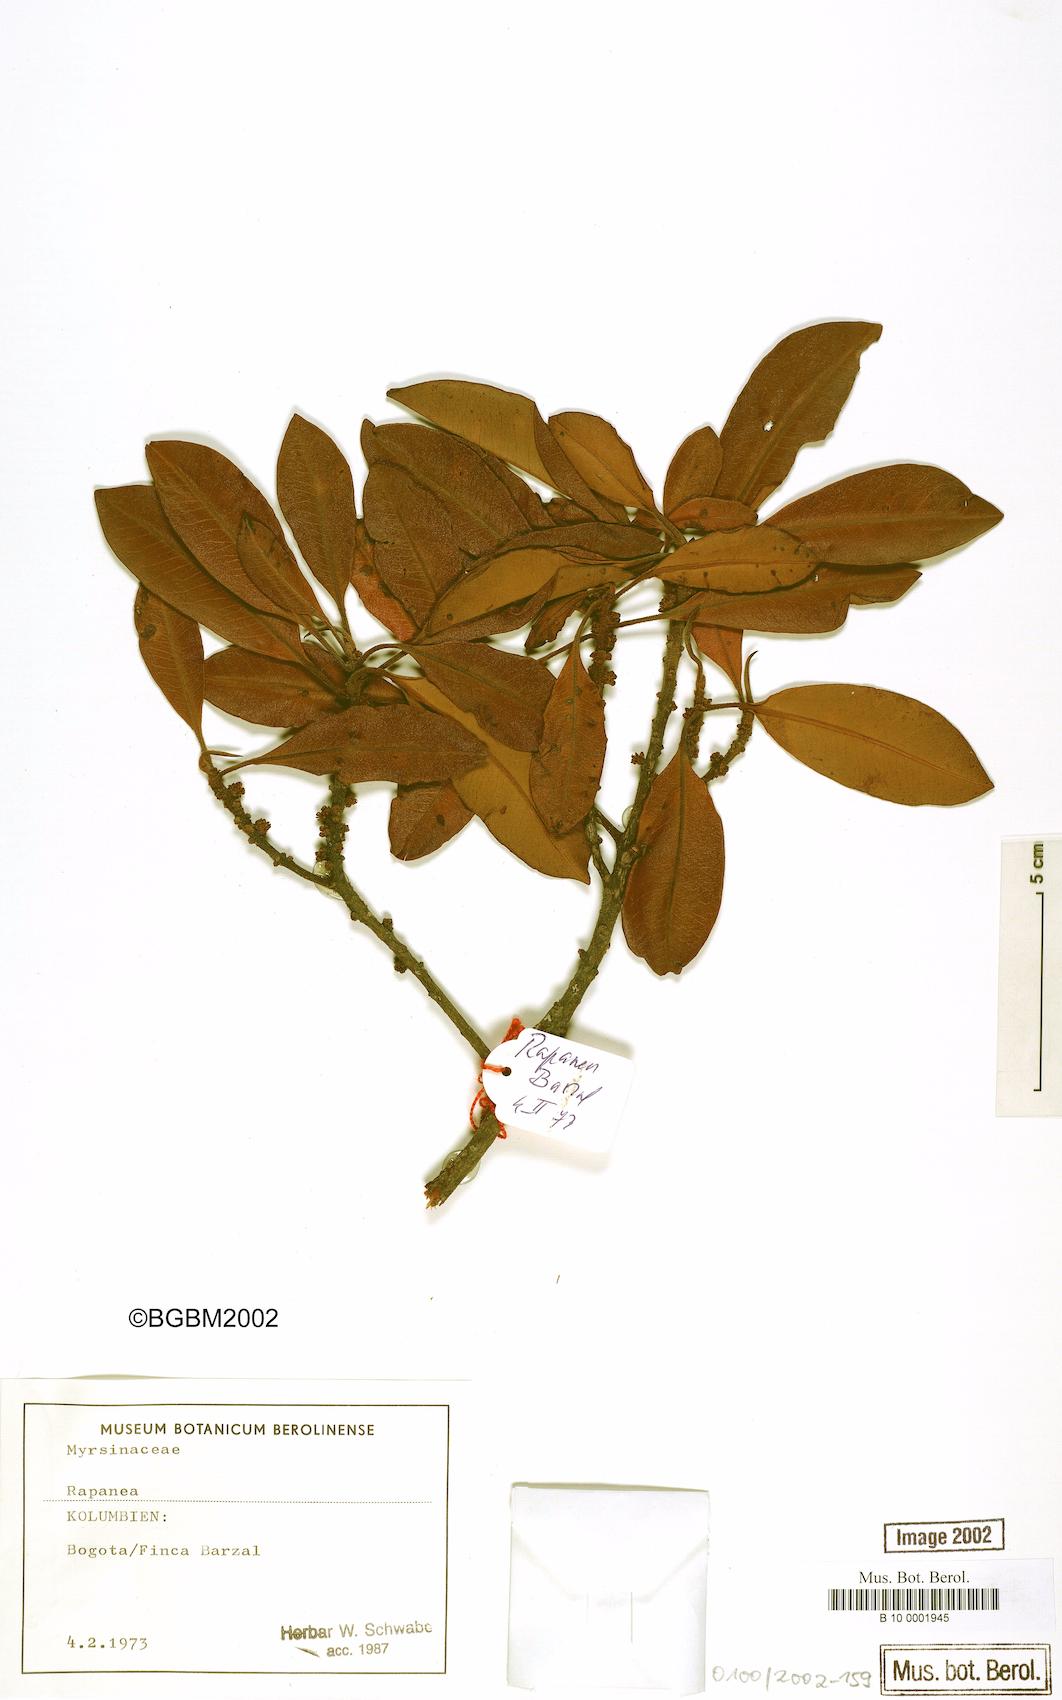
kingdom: Plantae
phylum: Tracheophyta
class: Magnoliopsida
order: Ericales
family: Primulaceae
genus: Myrsine
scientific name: Myrsine
